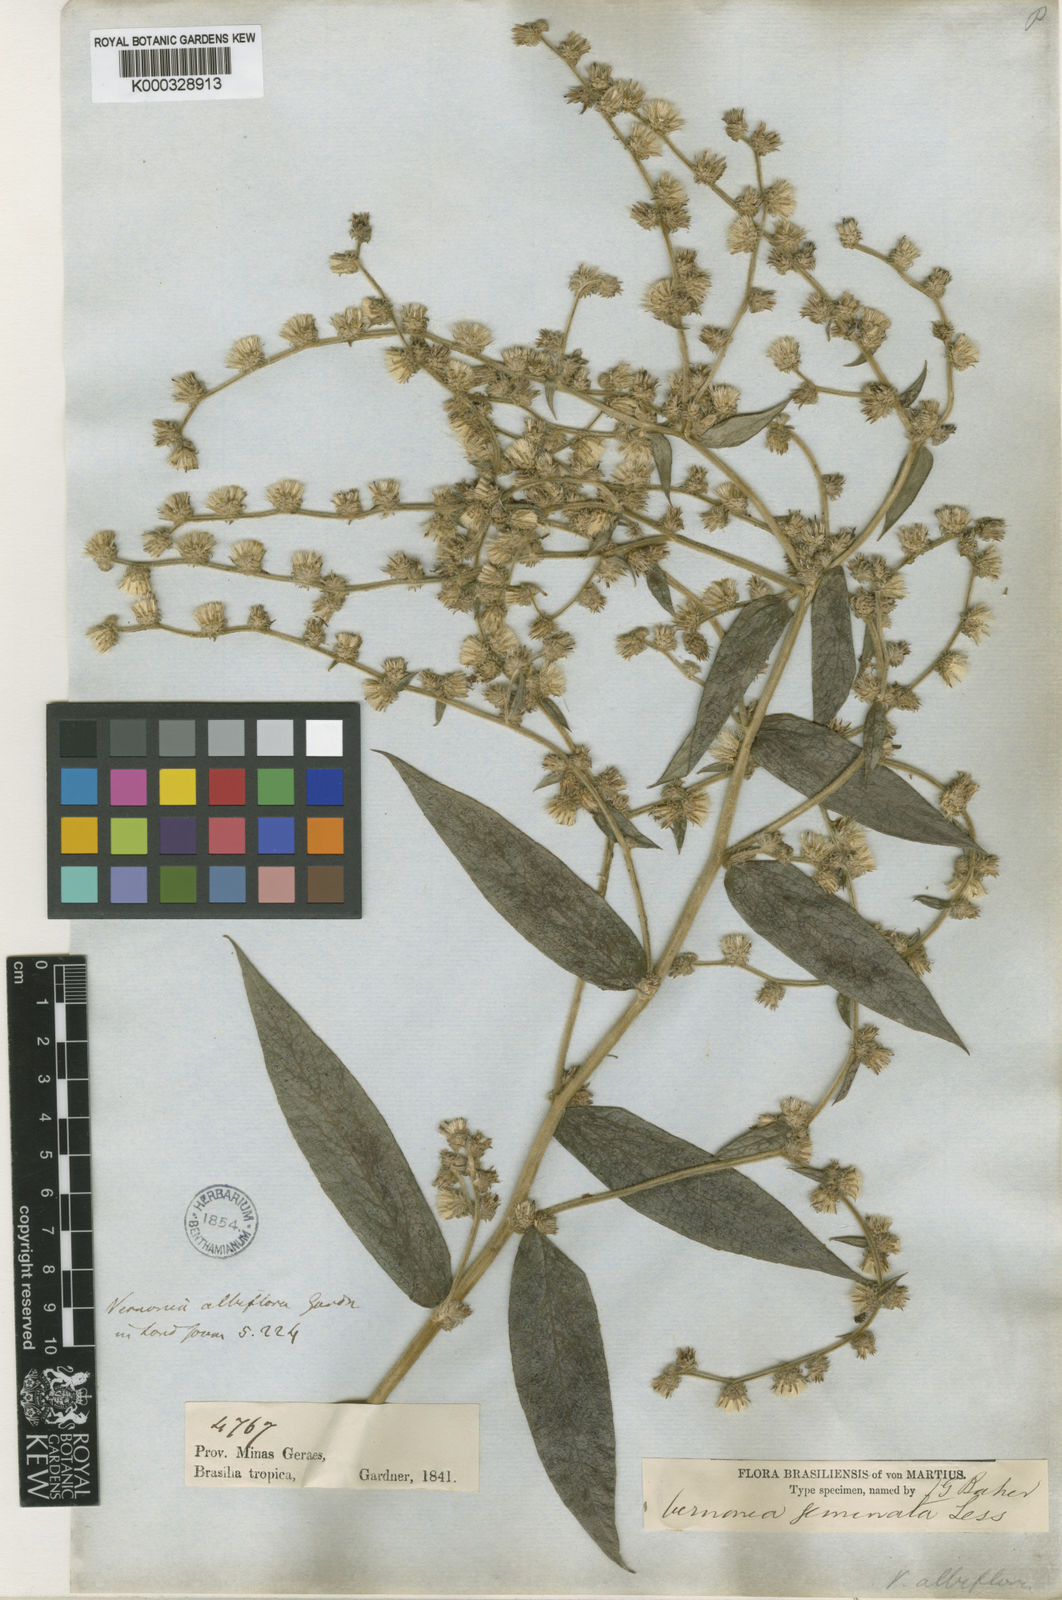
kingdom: Plantae
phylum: Tracheophyta
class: Magnoliopsida
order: Asterales
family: Asteraceae
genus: Vernonia
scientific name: Vernonia
